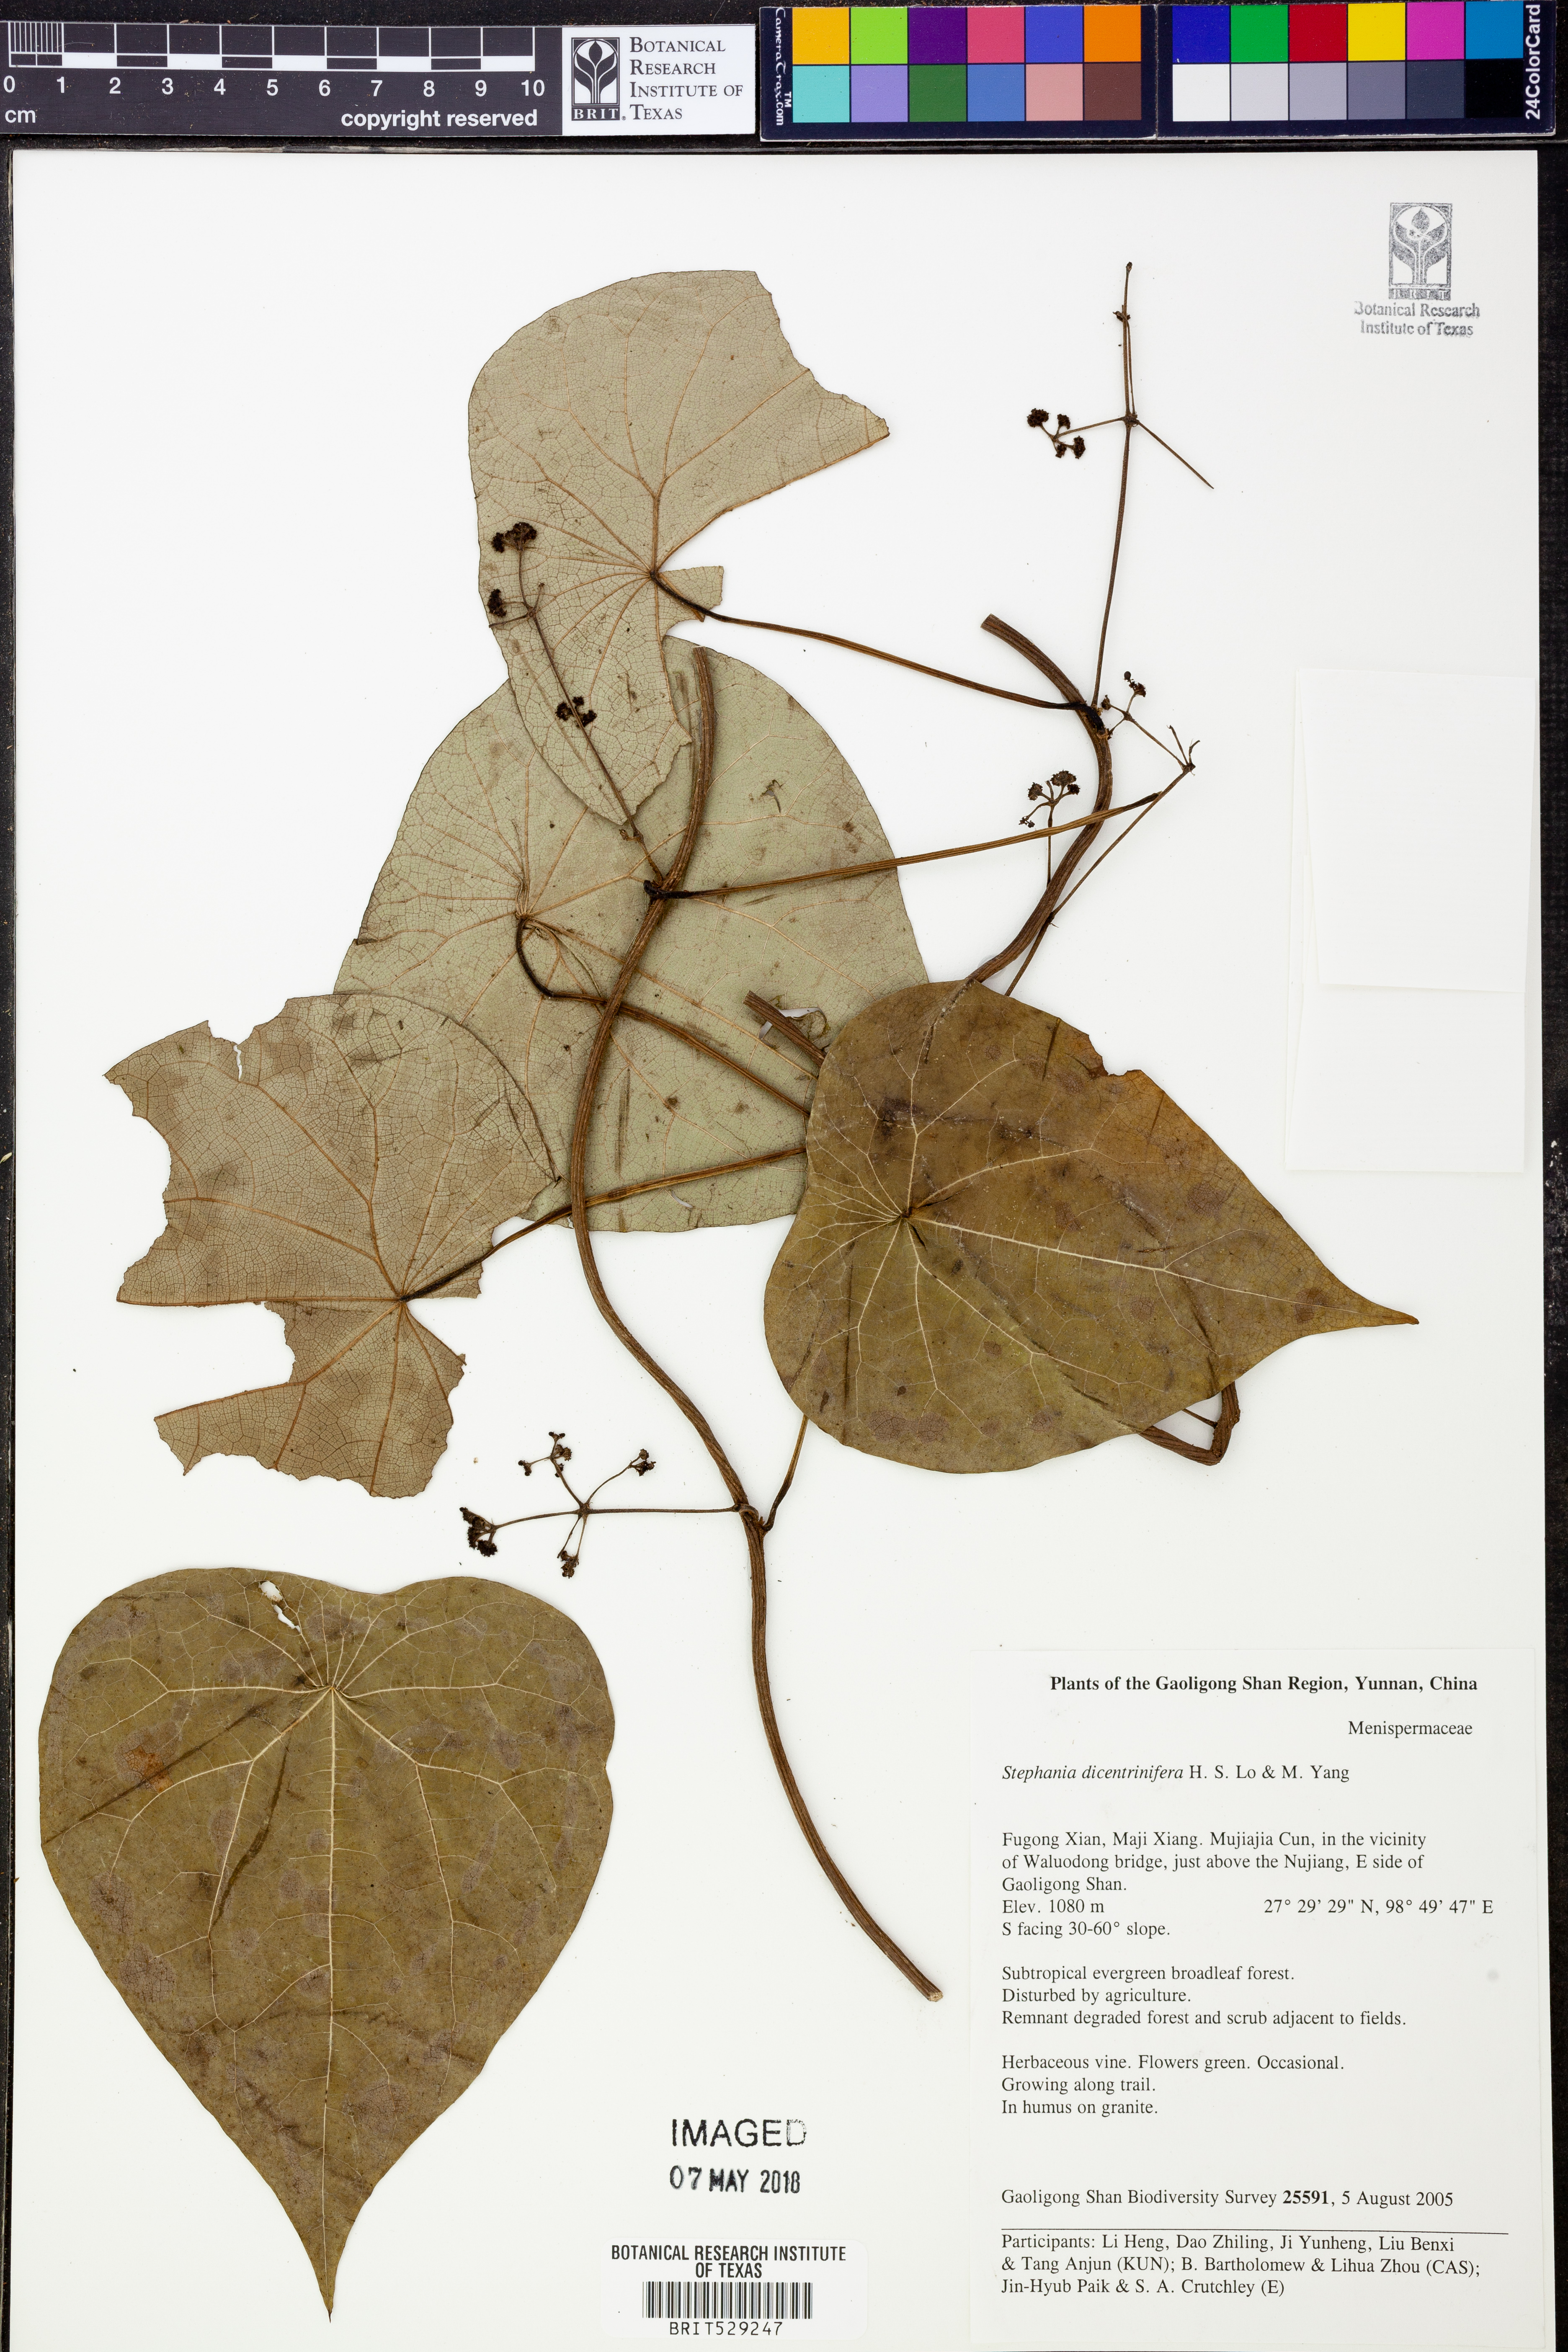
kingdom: Plantae
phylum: Tracheophyta
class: Magnoliopsida
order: Ranunculales
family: Menispermaceae
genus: Stephania
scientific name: Stephania dicentrinifera
